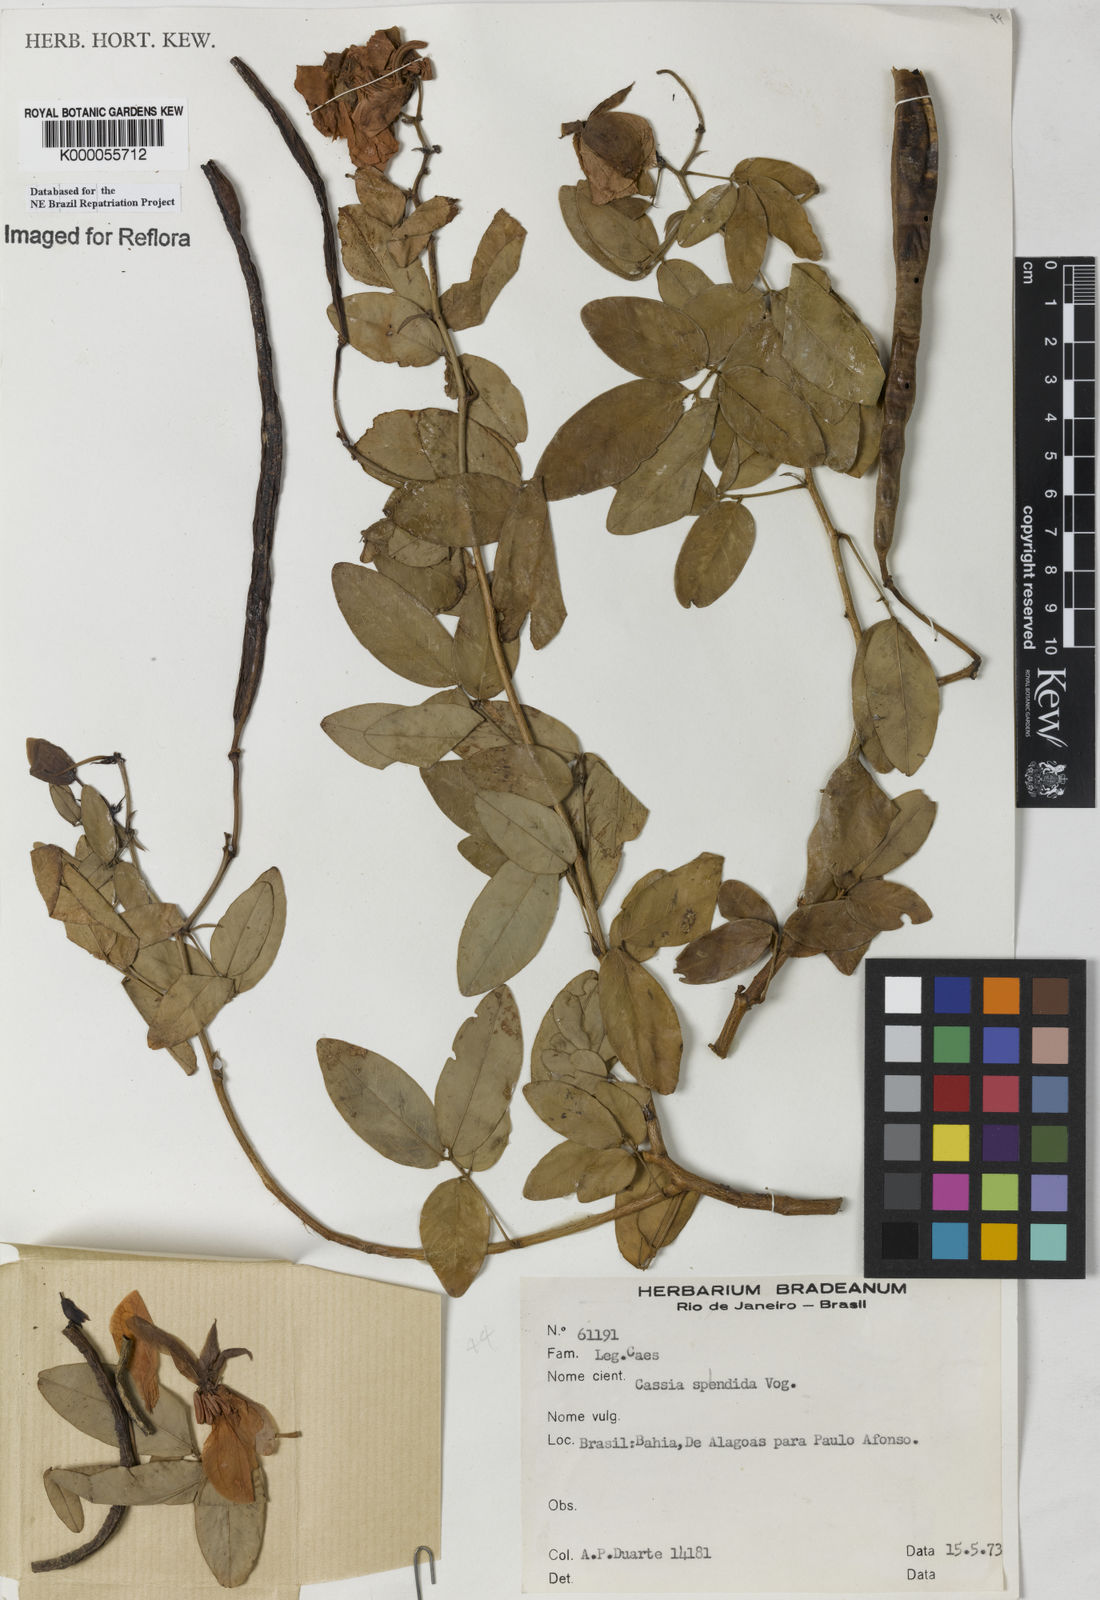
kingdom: Plantae
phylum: Tracheophyta
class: Magnoliopsida
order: Fabales
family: Fabaceae
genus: Senna
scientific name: Senna splendida
